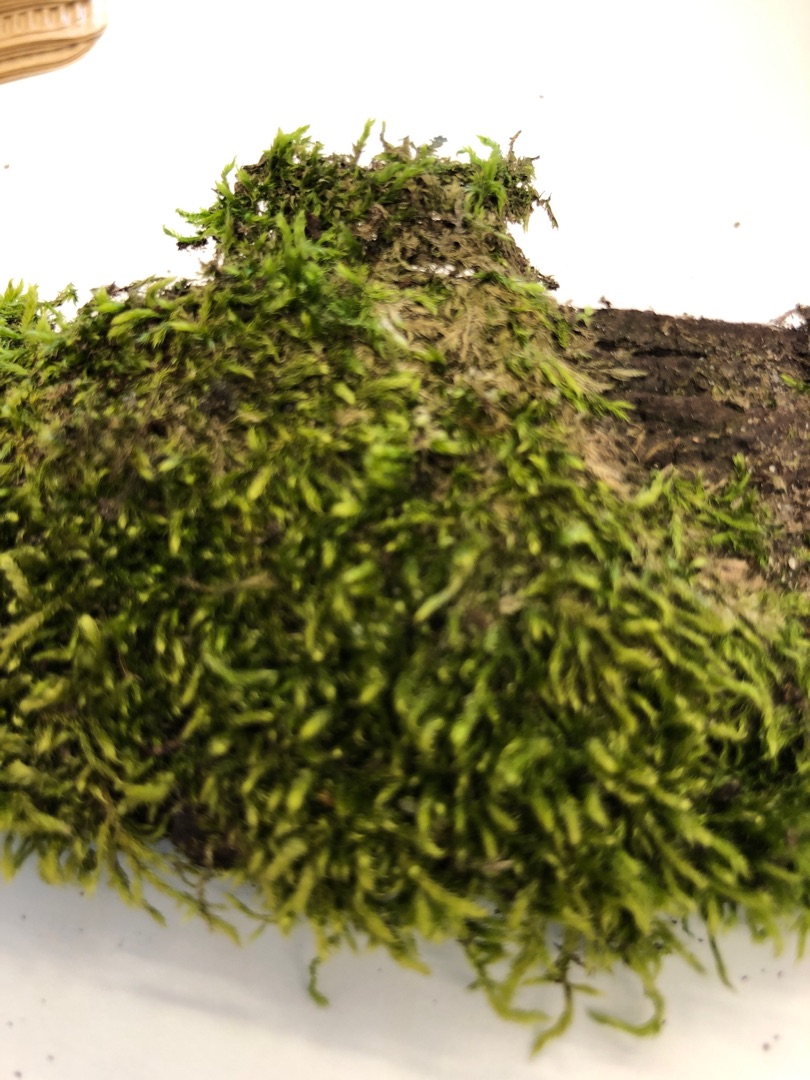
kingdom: Plantae
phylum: Bryophyta
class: Bryopsida
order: Hypnales
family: Hypnaceae
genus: Hypnum
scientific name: Hypnum
